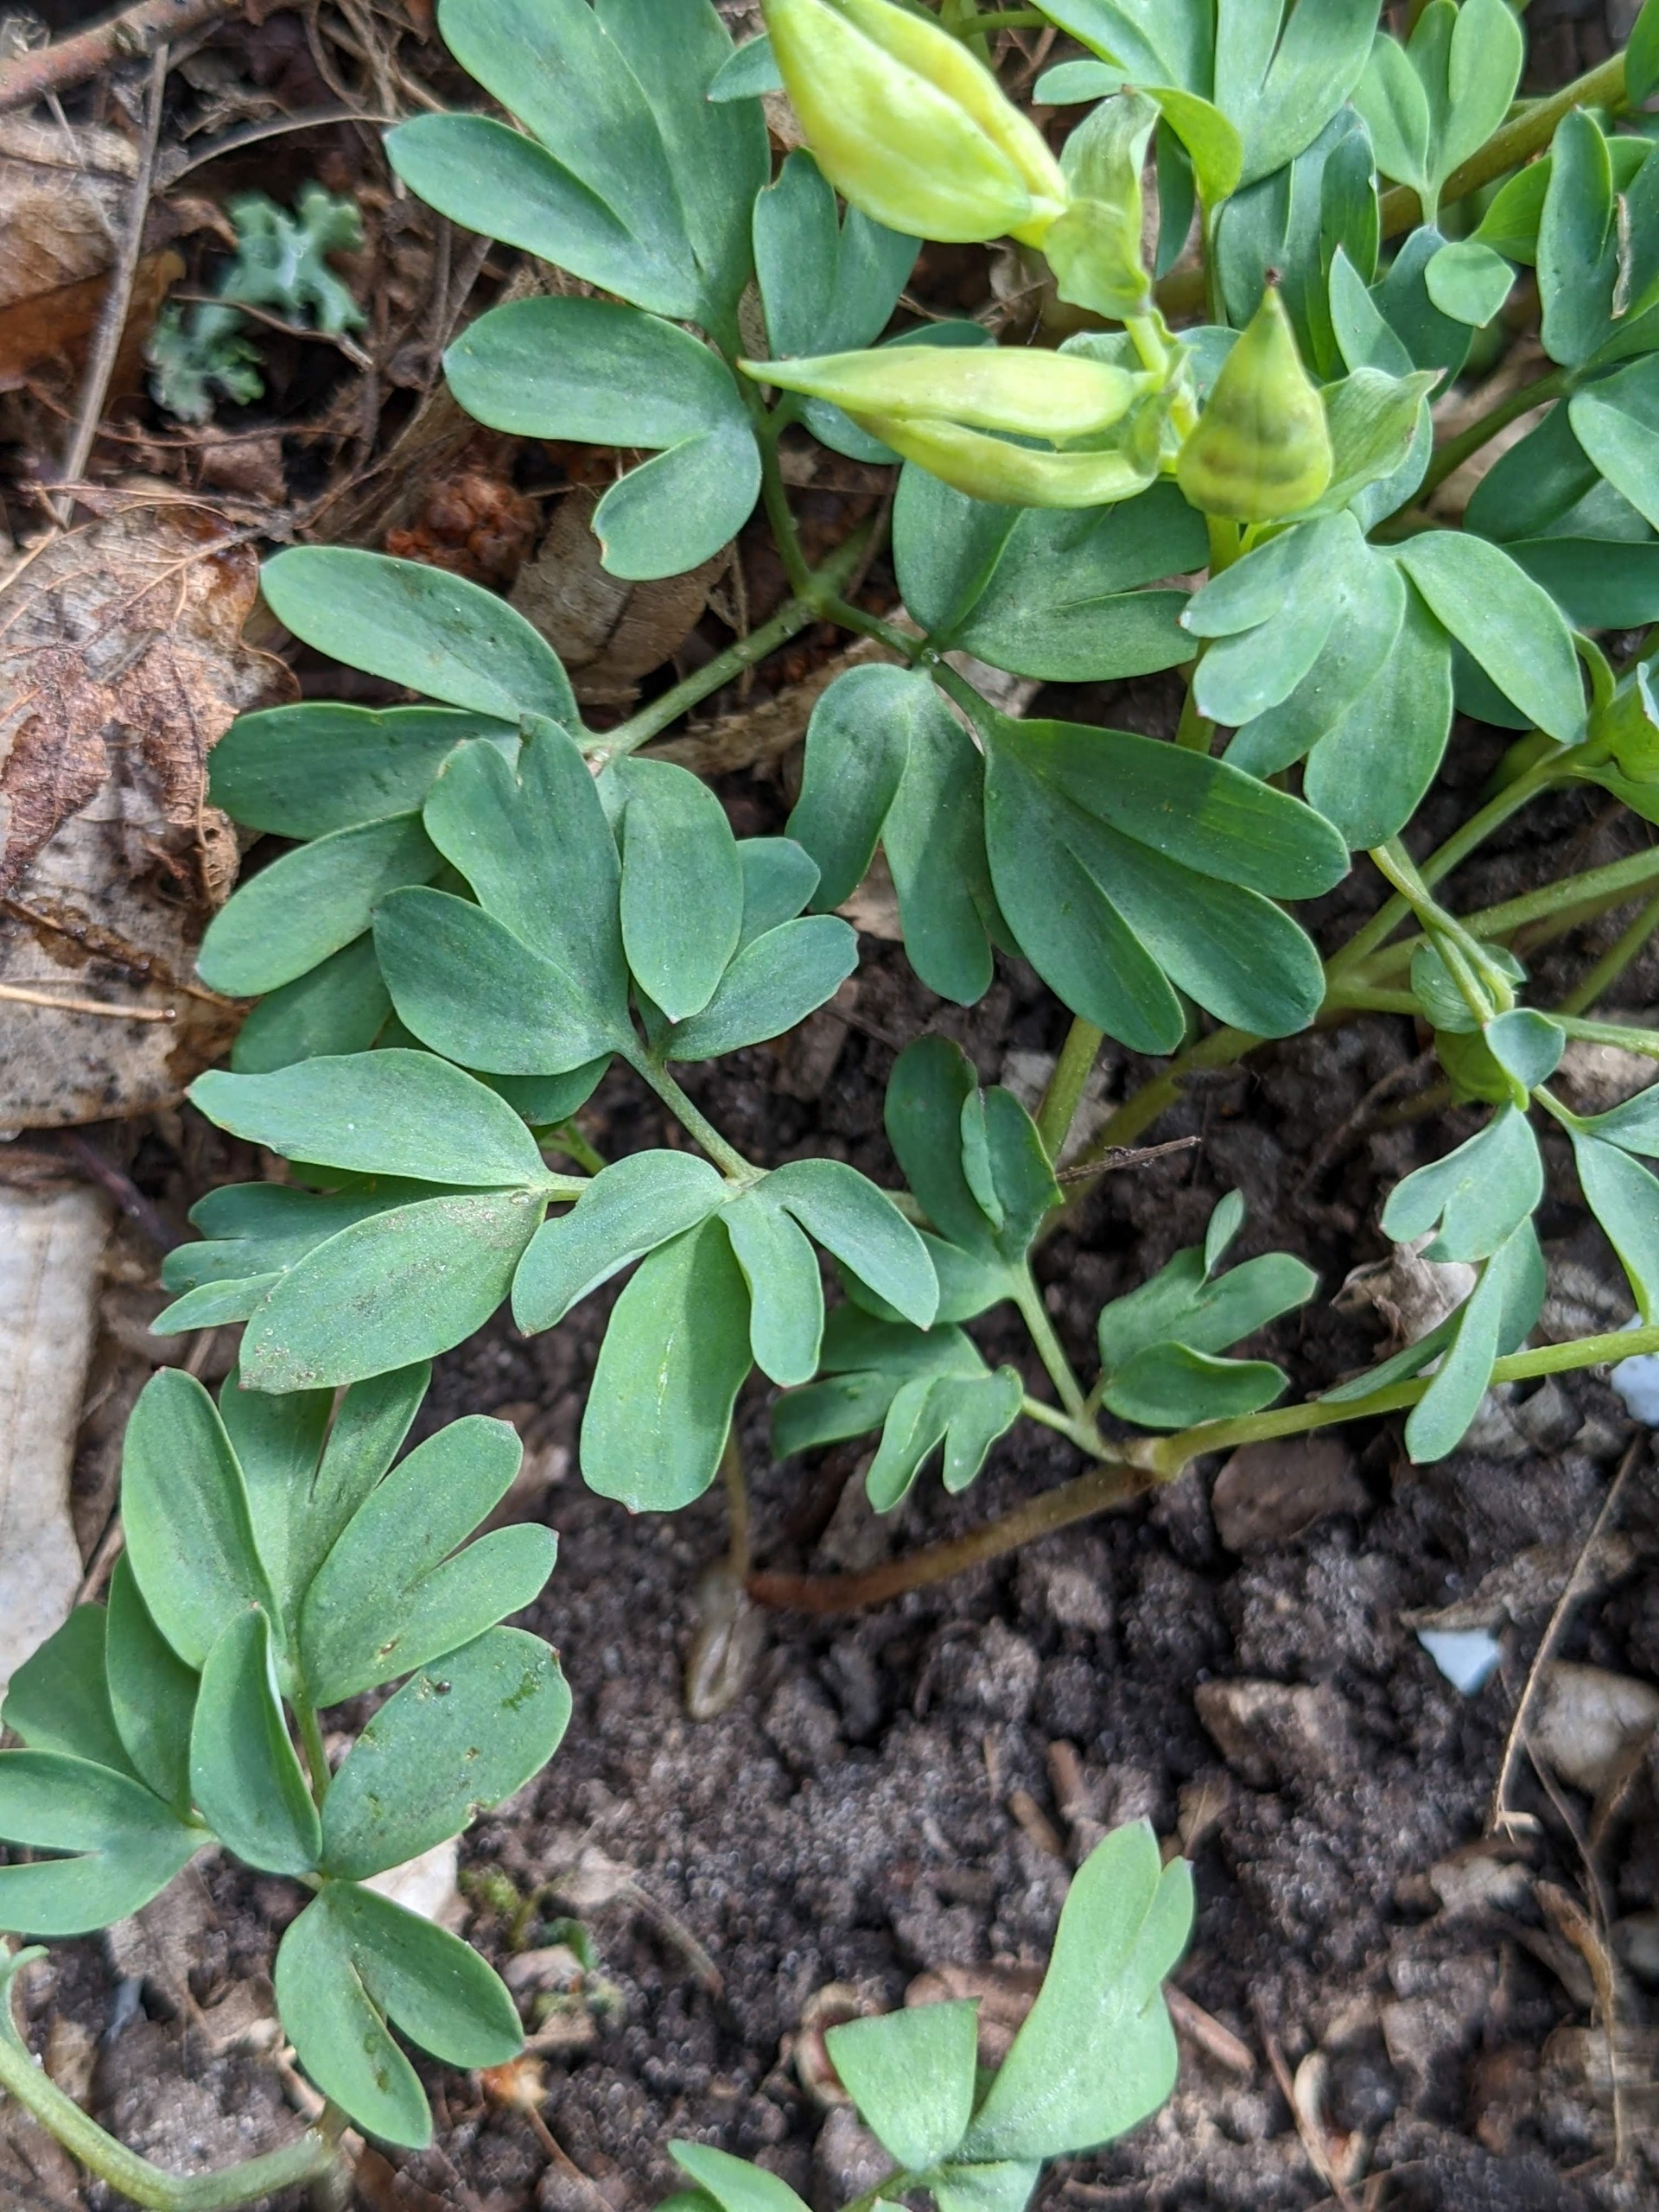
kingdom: Plantae
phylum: Tracheophyta
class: Magnoliopsida
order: Ranunculales
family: Papaveraceae
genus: Corydalis
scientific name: Corydalis intermedia
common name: Liden lærkespore
